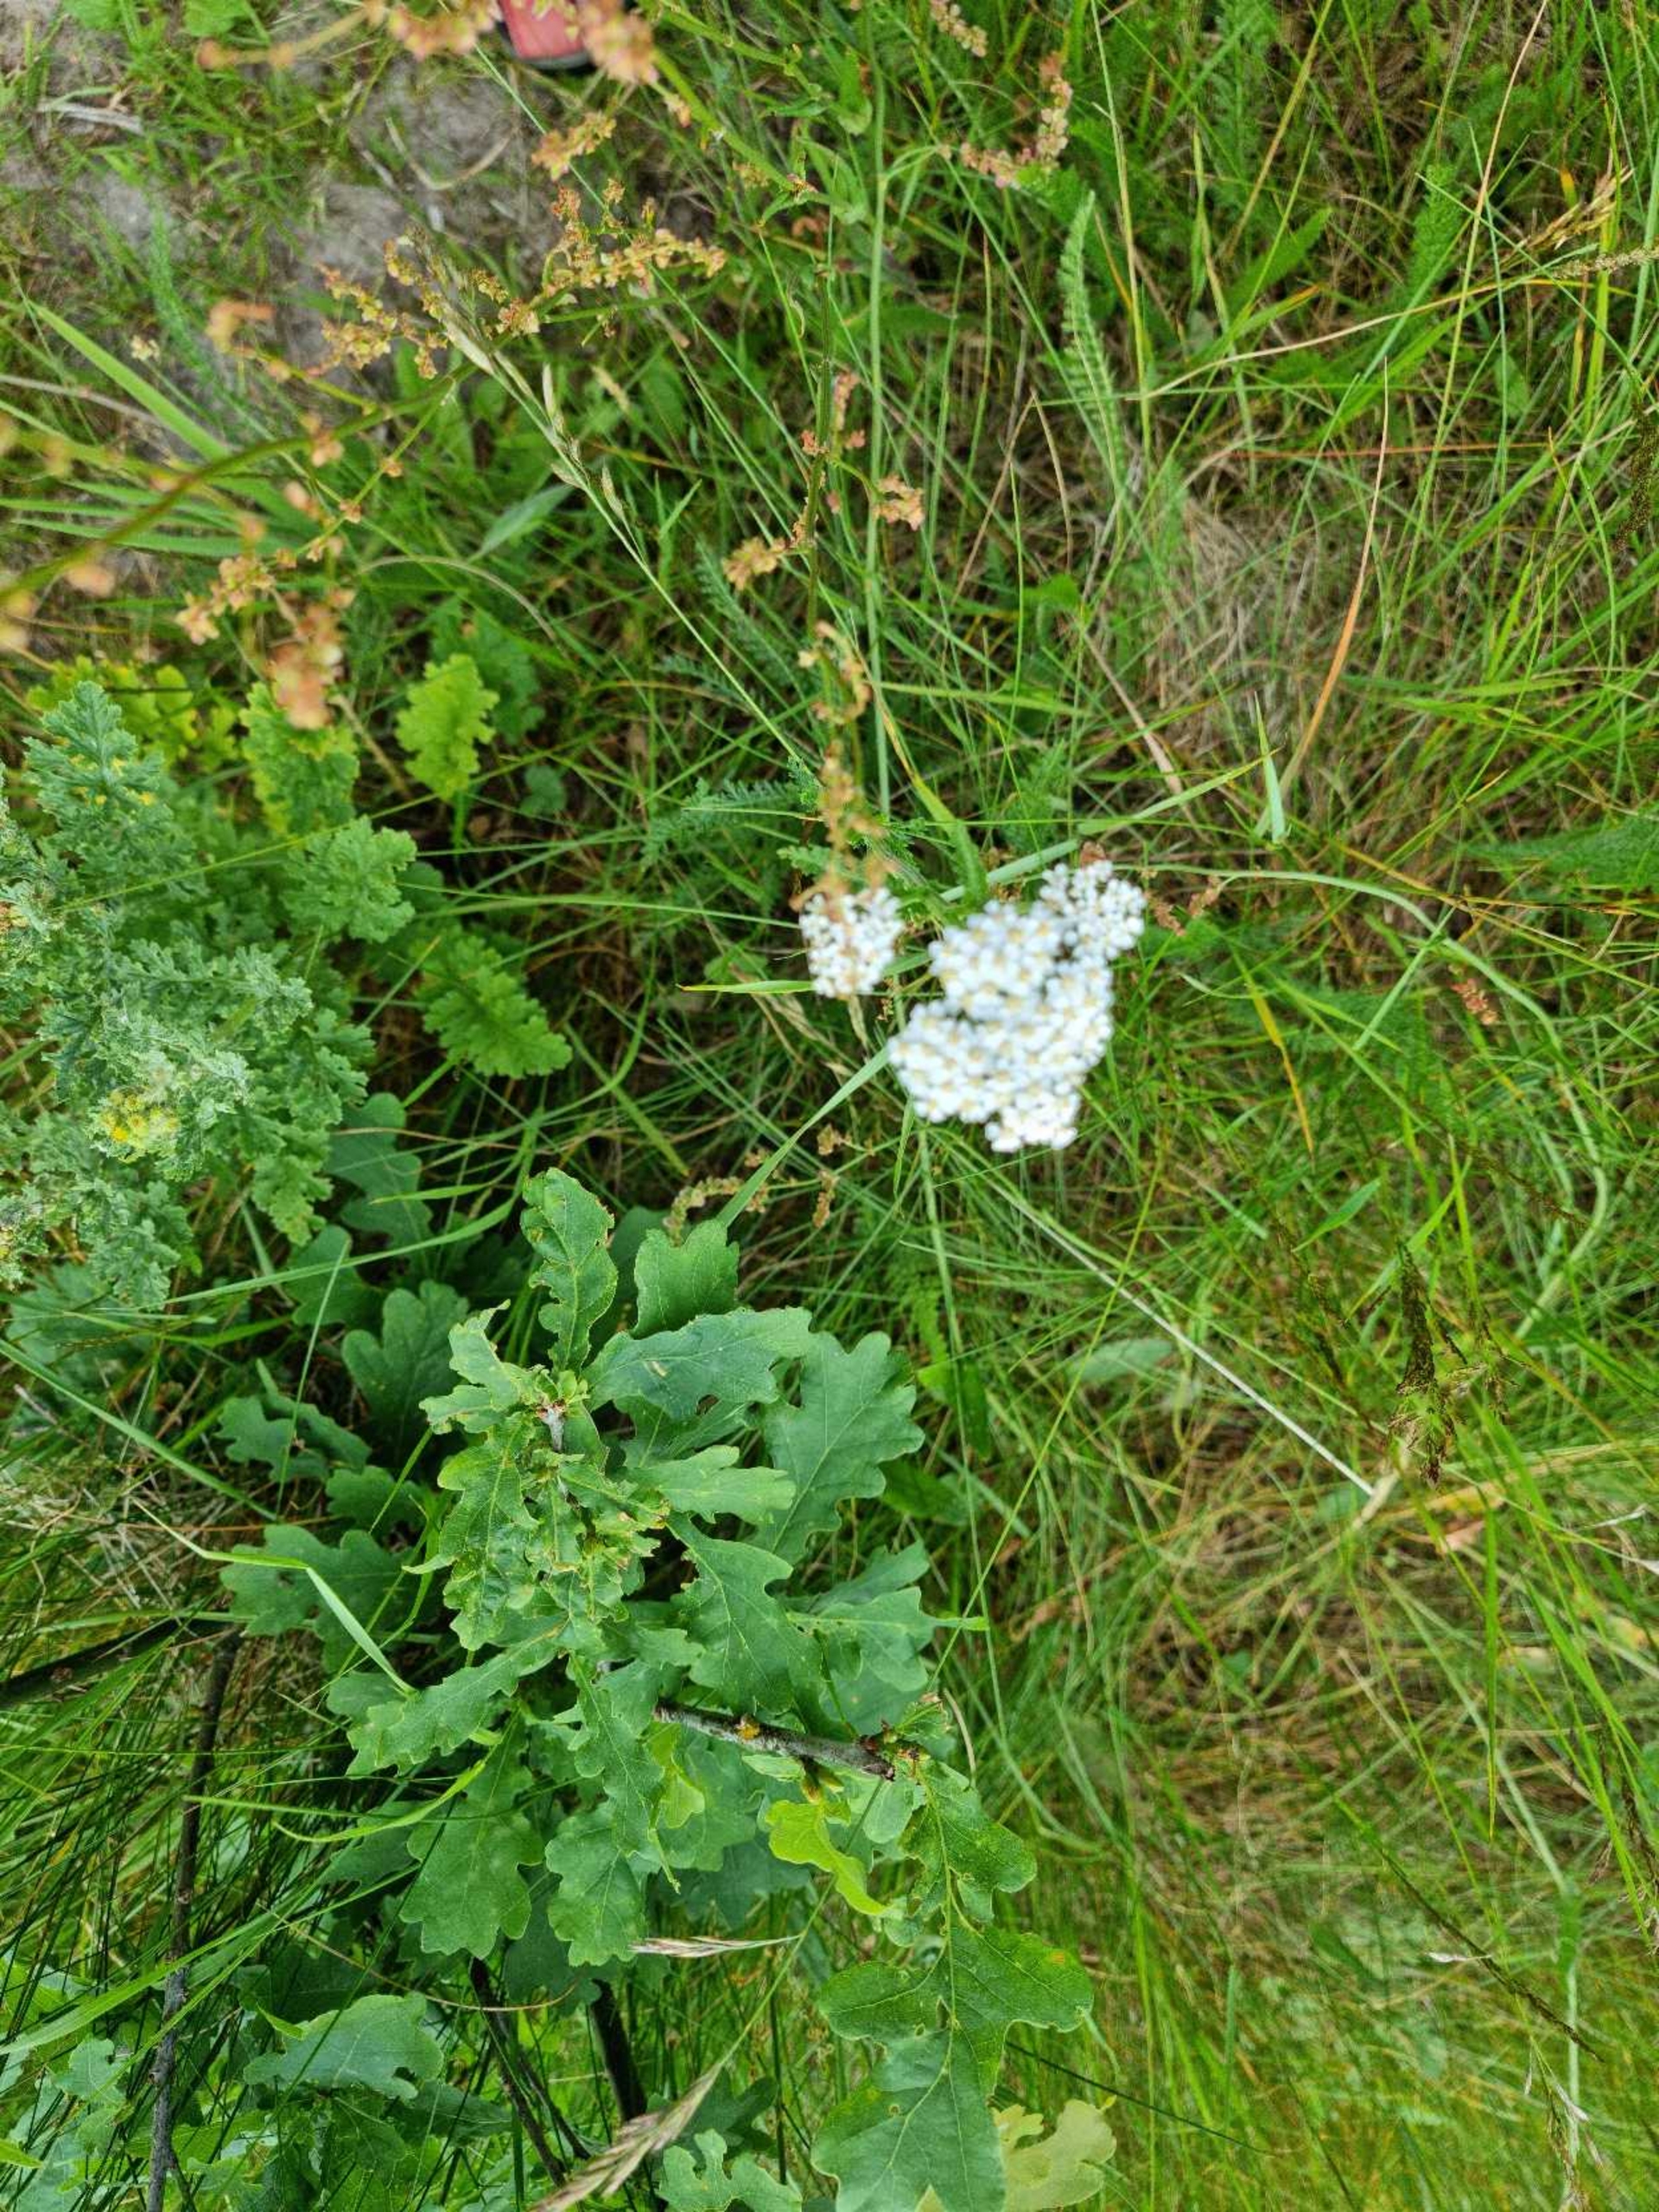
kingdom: Plantae
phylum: Tracheophyta
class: Magnoliopsida
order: Asterales
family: Asteraceae
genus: Achillea
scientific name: Achillea millefolium
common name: Almindelig røllike
